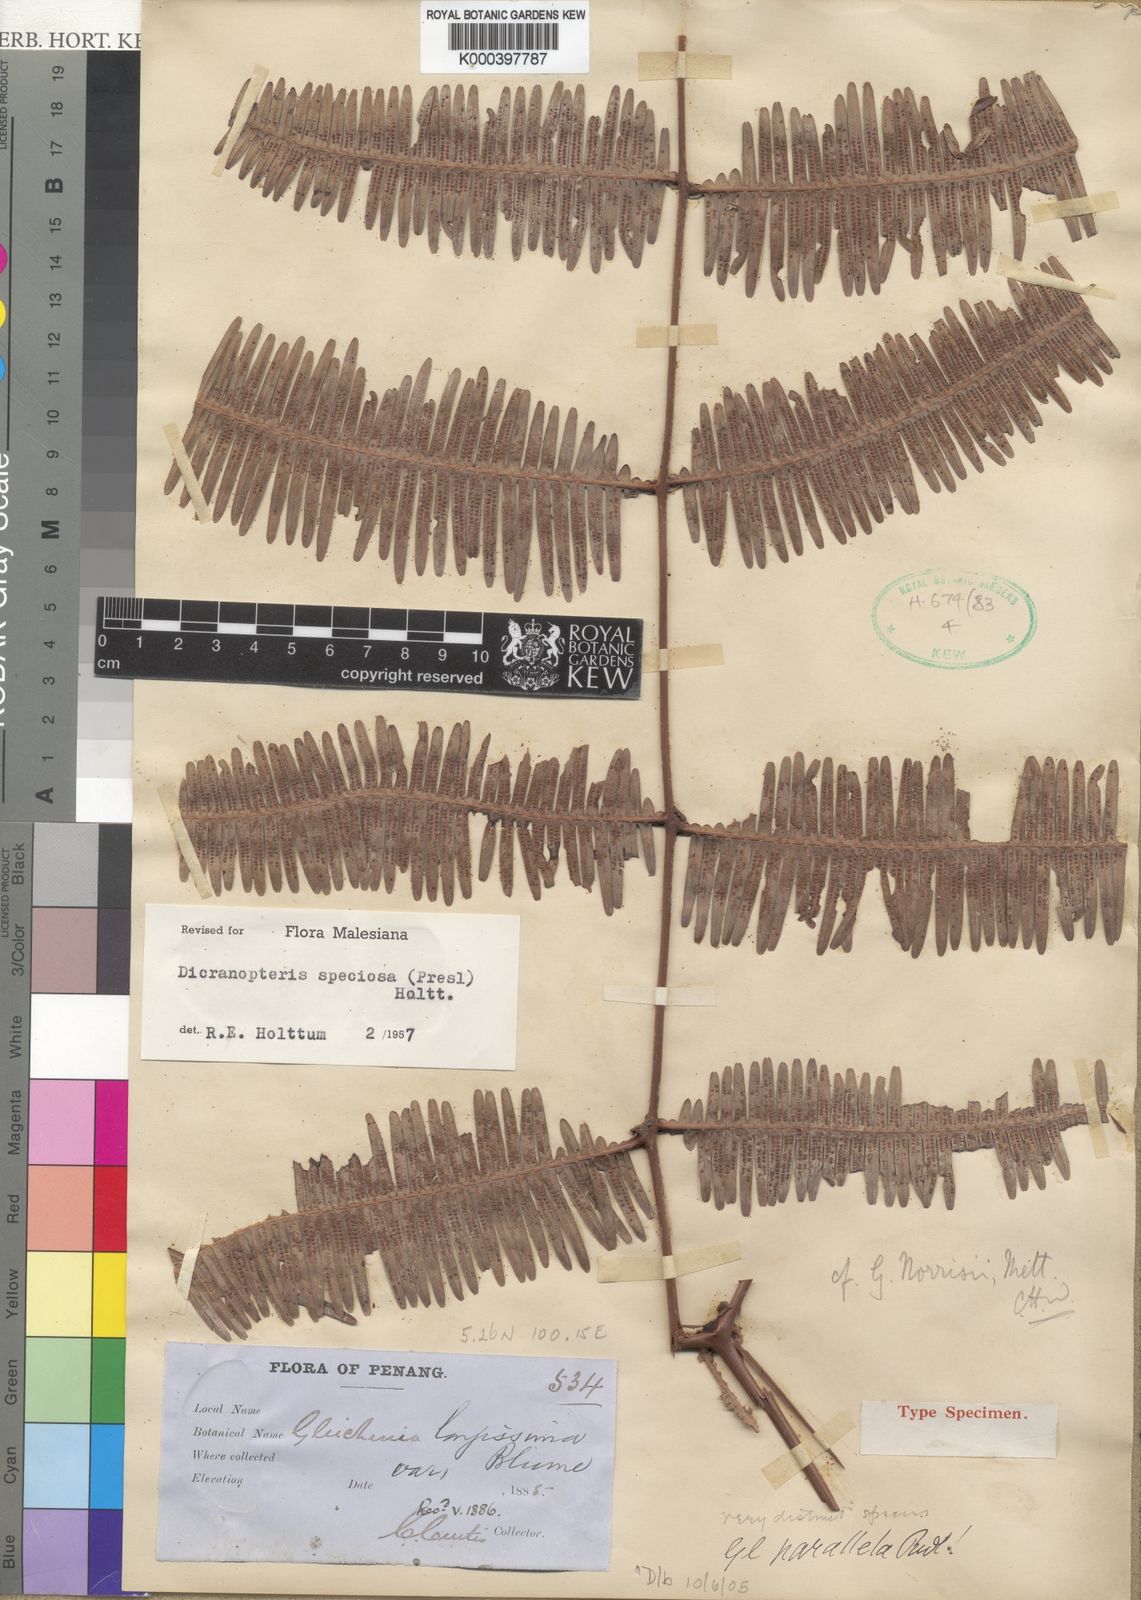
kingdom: Plantae
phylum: Tracheophyta
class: Polypodiopsida
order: Gleicheniales
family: Gleicheniaceae
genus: Dicranopteris
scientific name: Dicranopteris speciosa
